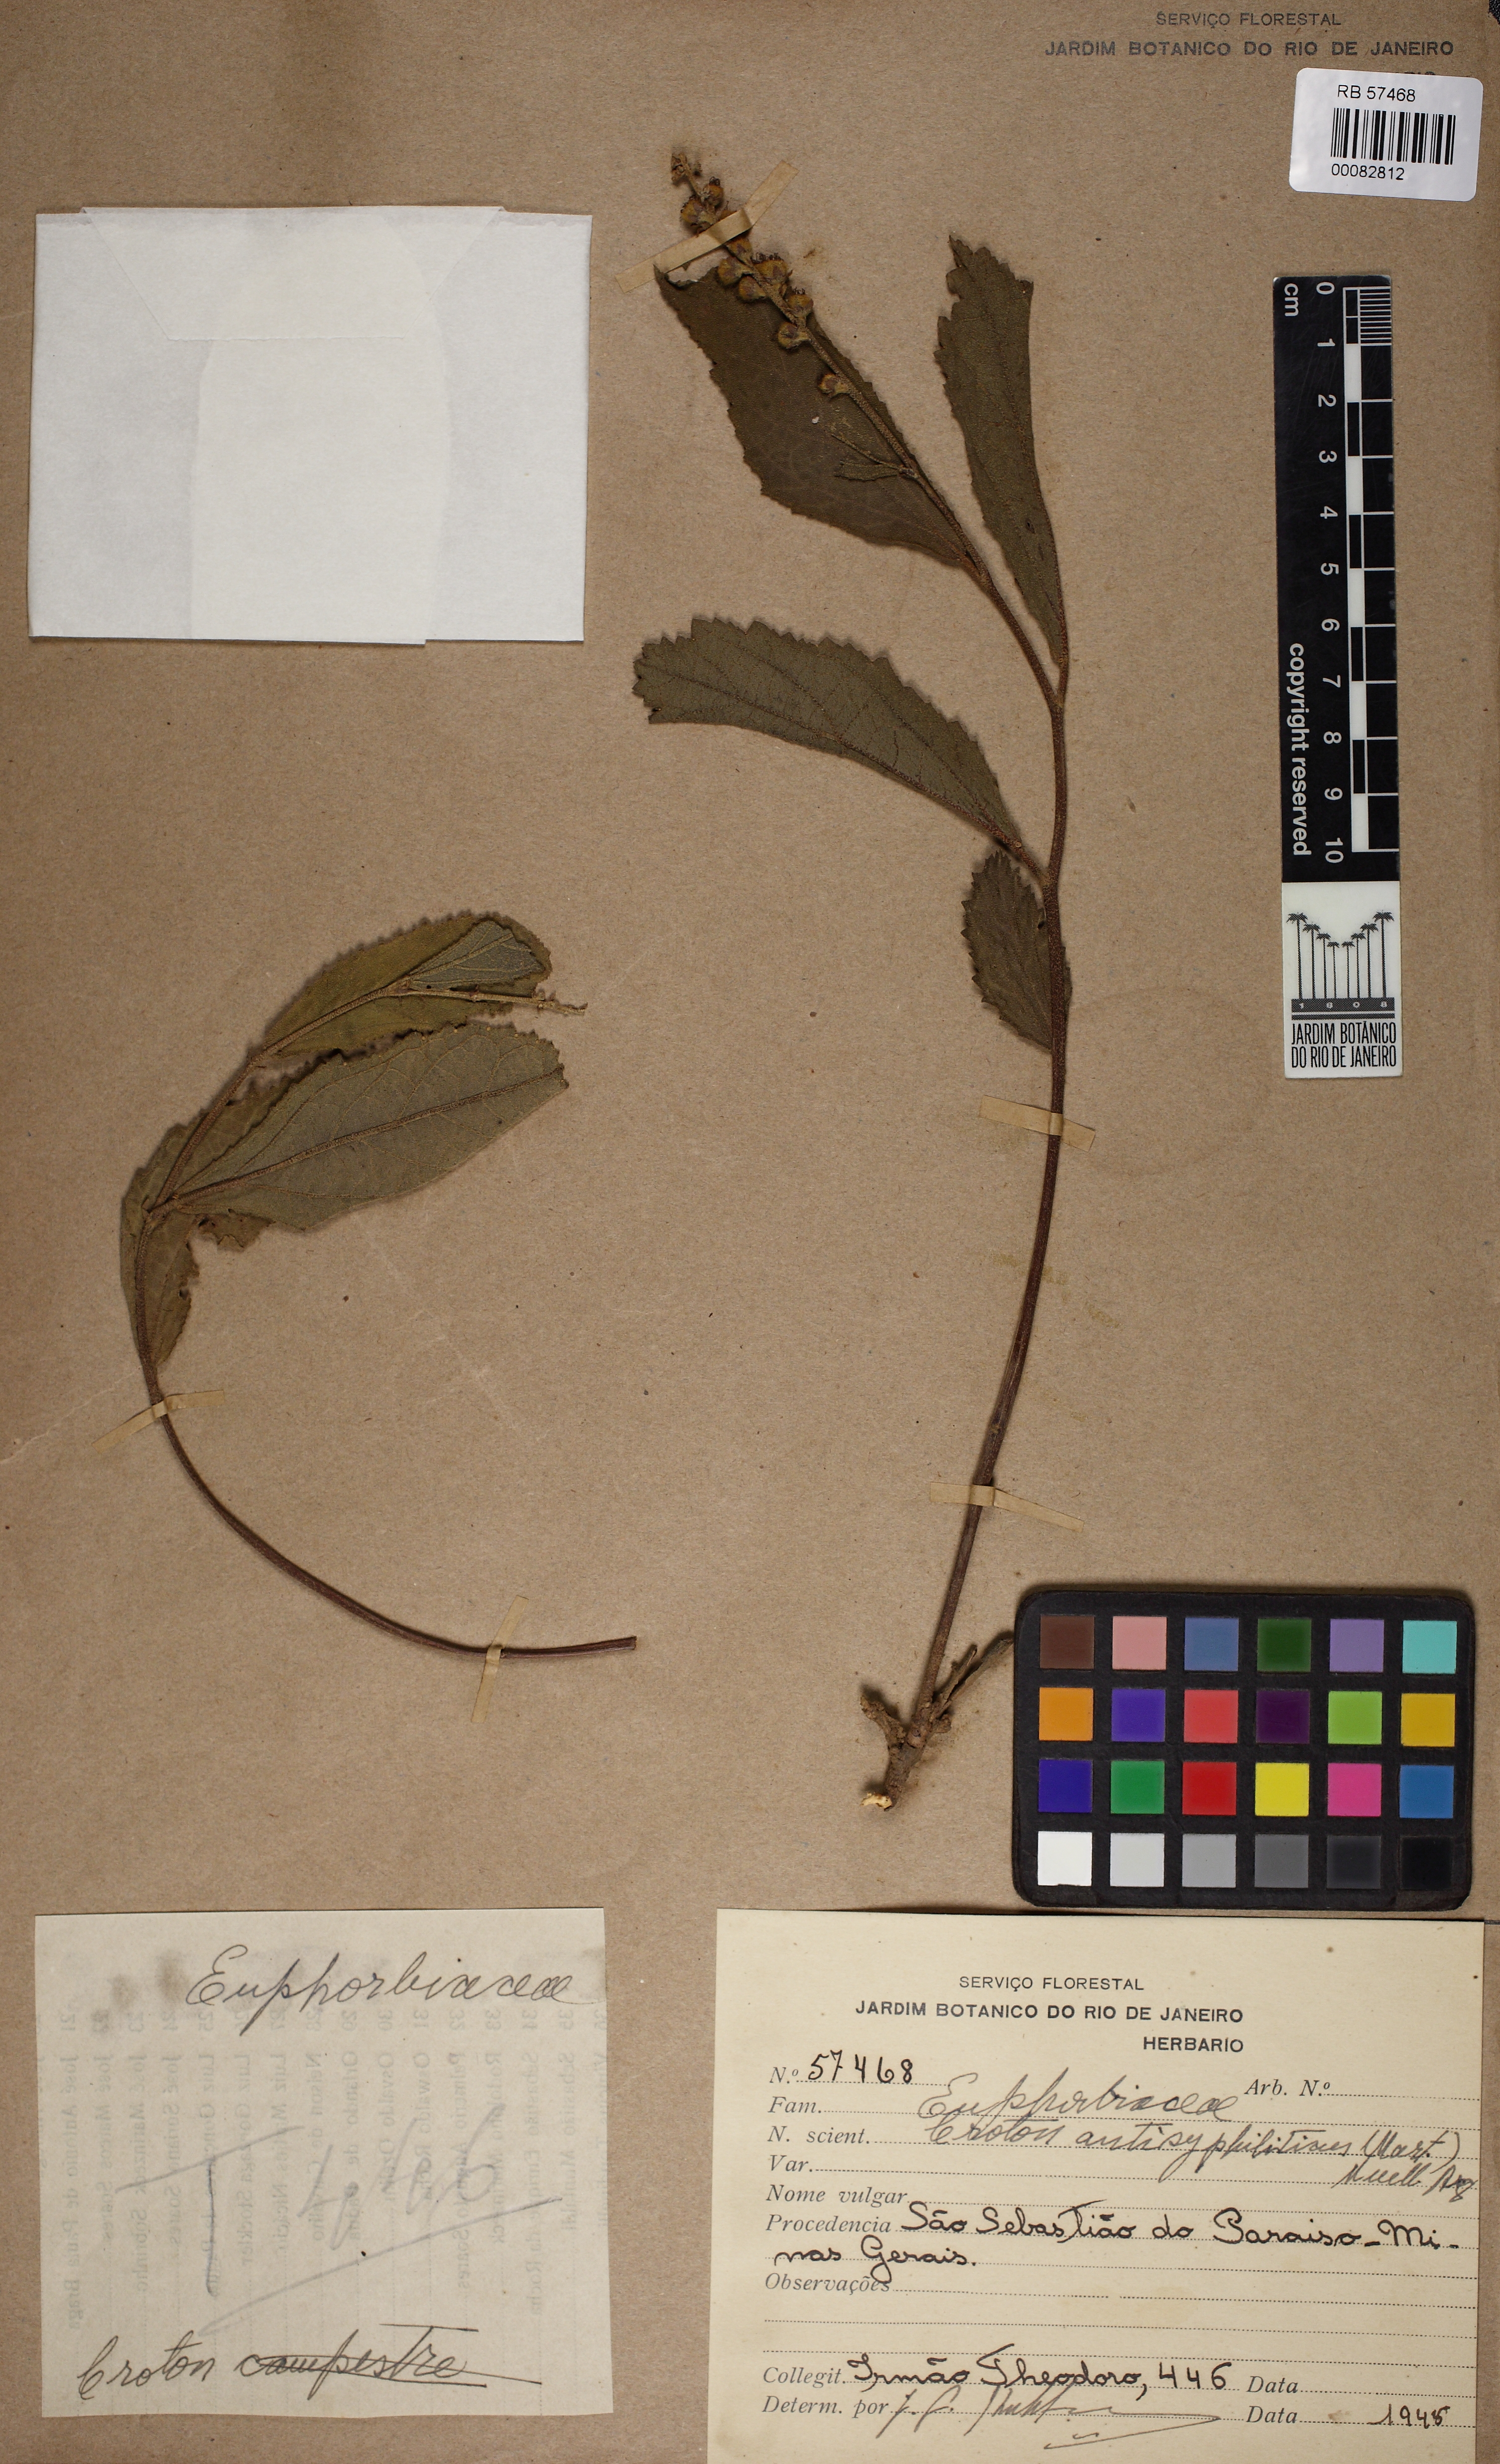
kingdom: Plantae
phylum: Tracheophyta
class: Magnoliopsida
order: Malpighiales
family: Euphorbiaceae
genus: Croton
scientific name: Croton antisyphiliticus
